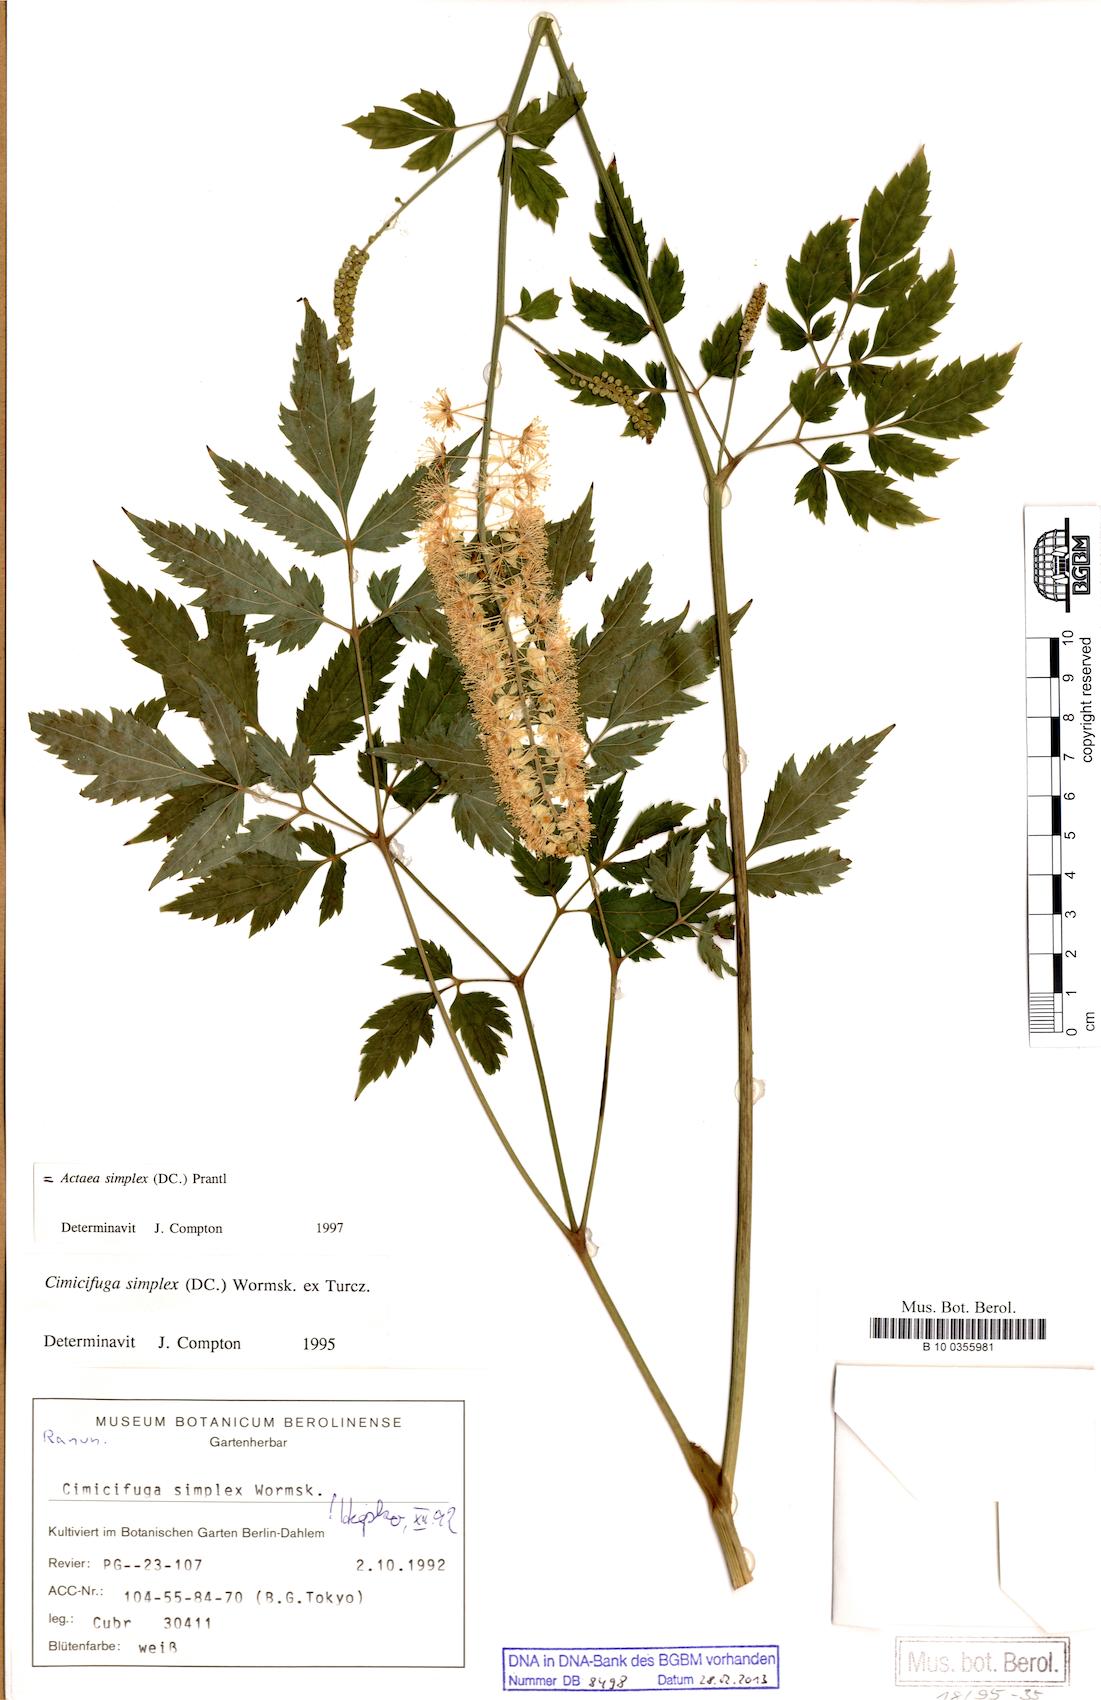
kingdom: Plantae
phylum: Tracheophyta
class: Magnoliopsida
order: Ranunculales
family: Ranunculaceae
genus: Actaea
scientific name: Actaea simplex
